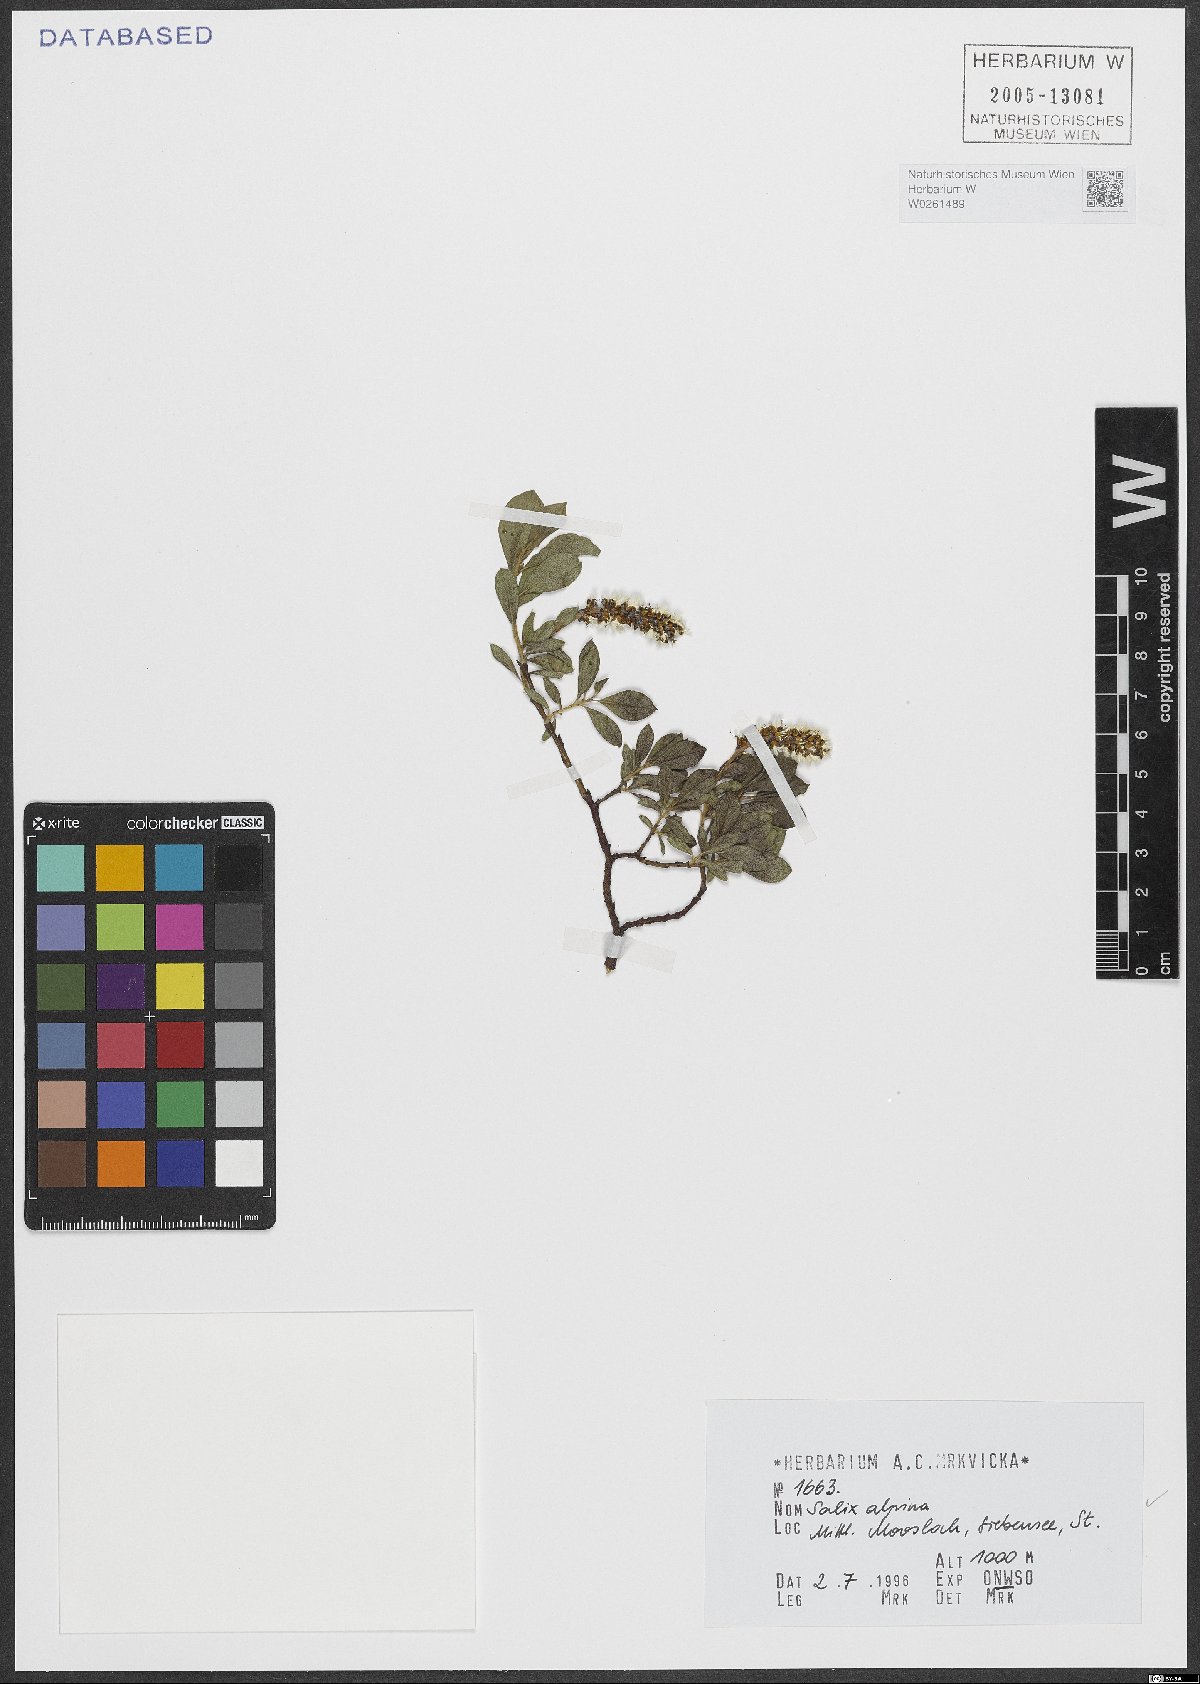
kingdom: Plantae
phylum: Tracheophyta
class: Magnoliopsida
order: Malpighiales
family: Salicaceae
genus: Salix
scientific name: Salix alpina
